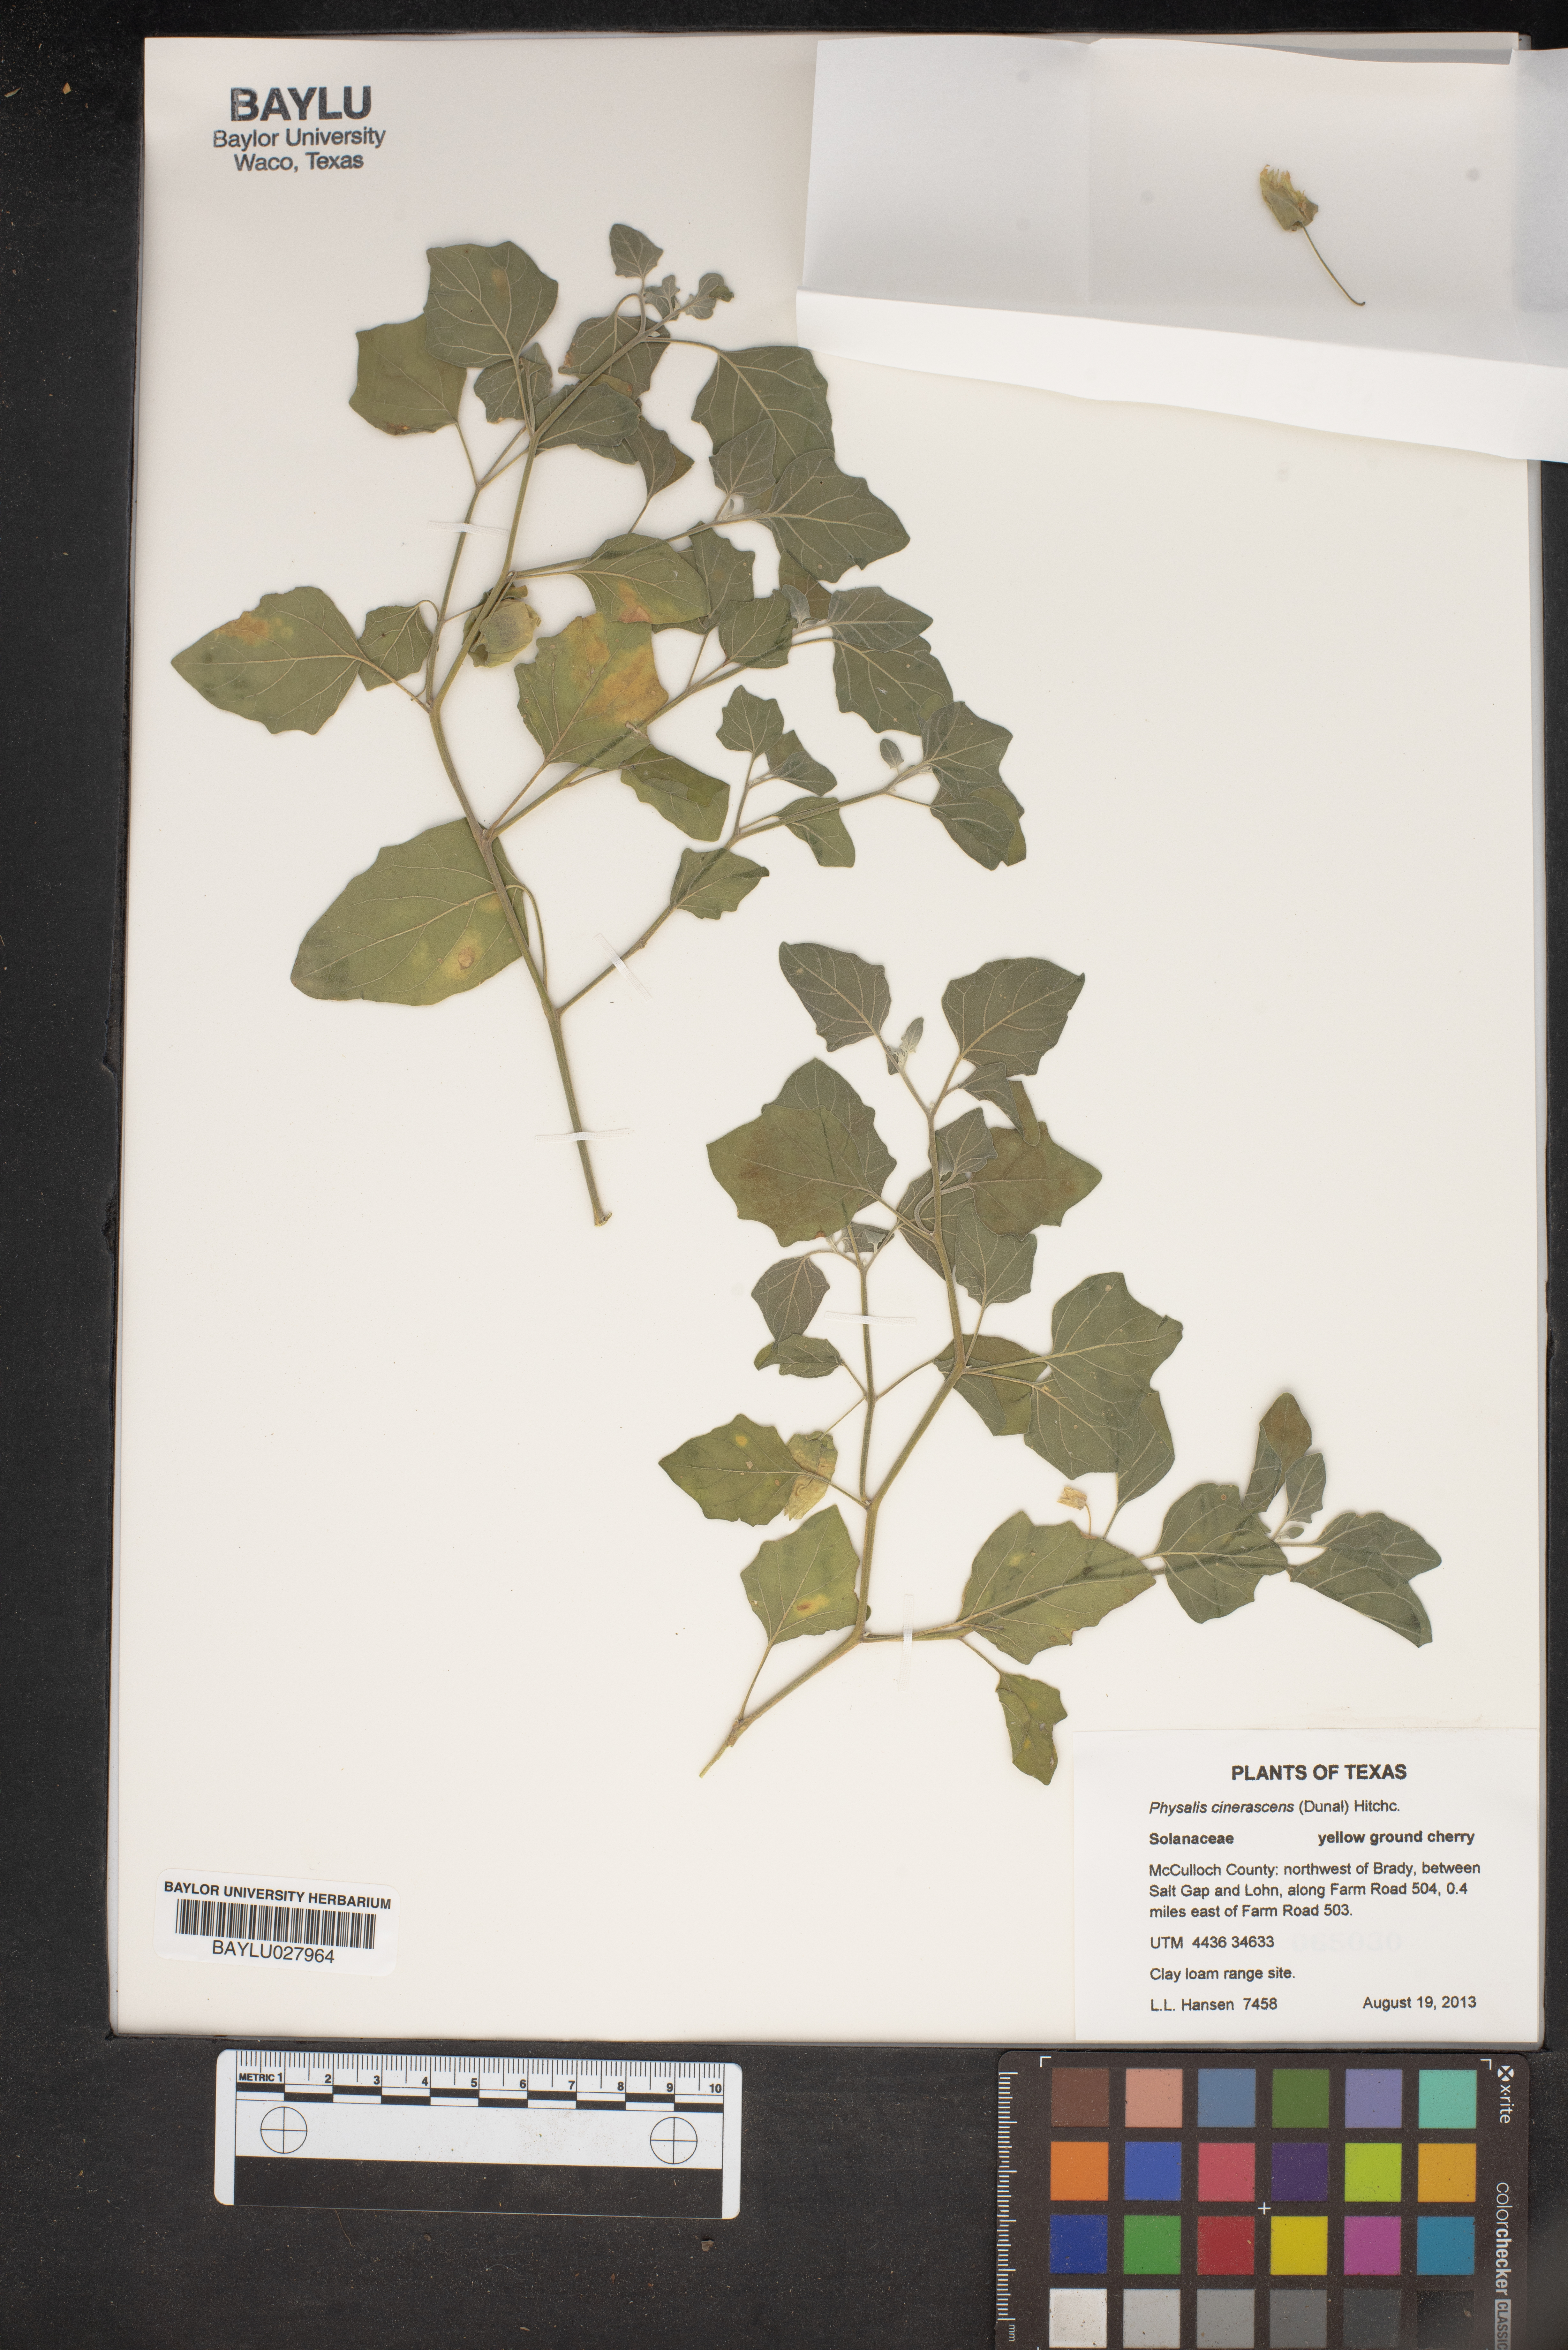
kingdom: Plantae
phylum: Tracheophyta
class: Magnoliopsida
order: Solanales
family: Solanaceae
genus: Physalis
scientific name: Physalis cinerascens
